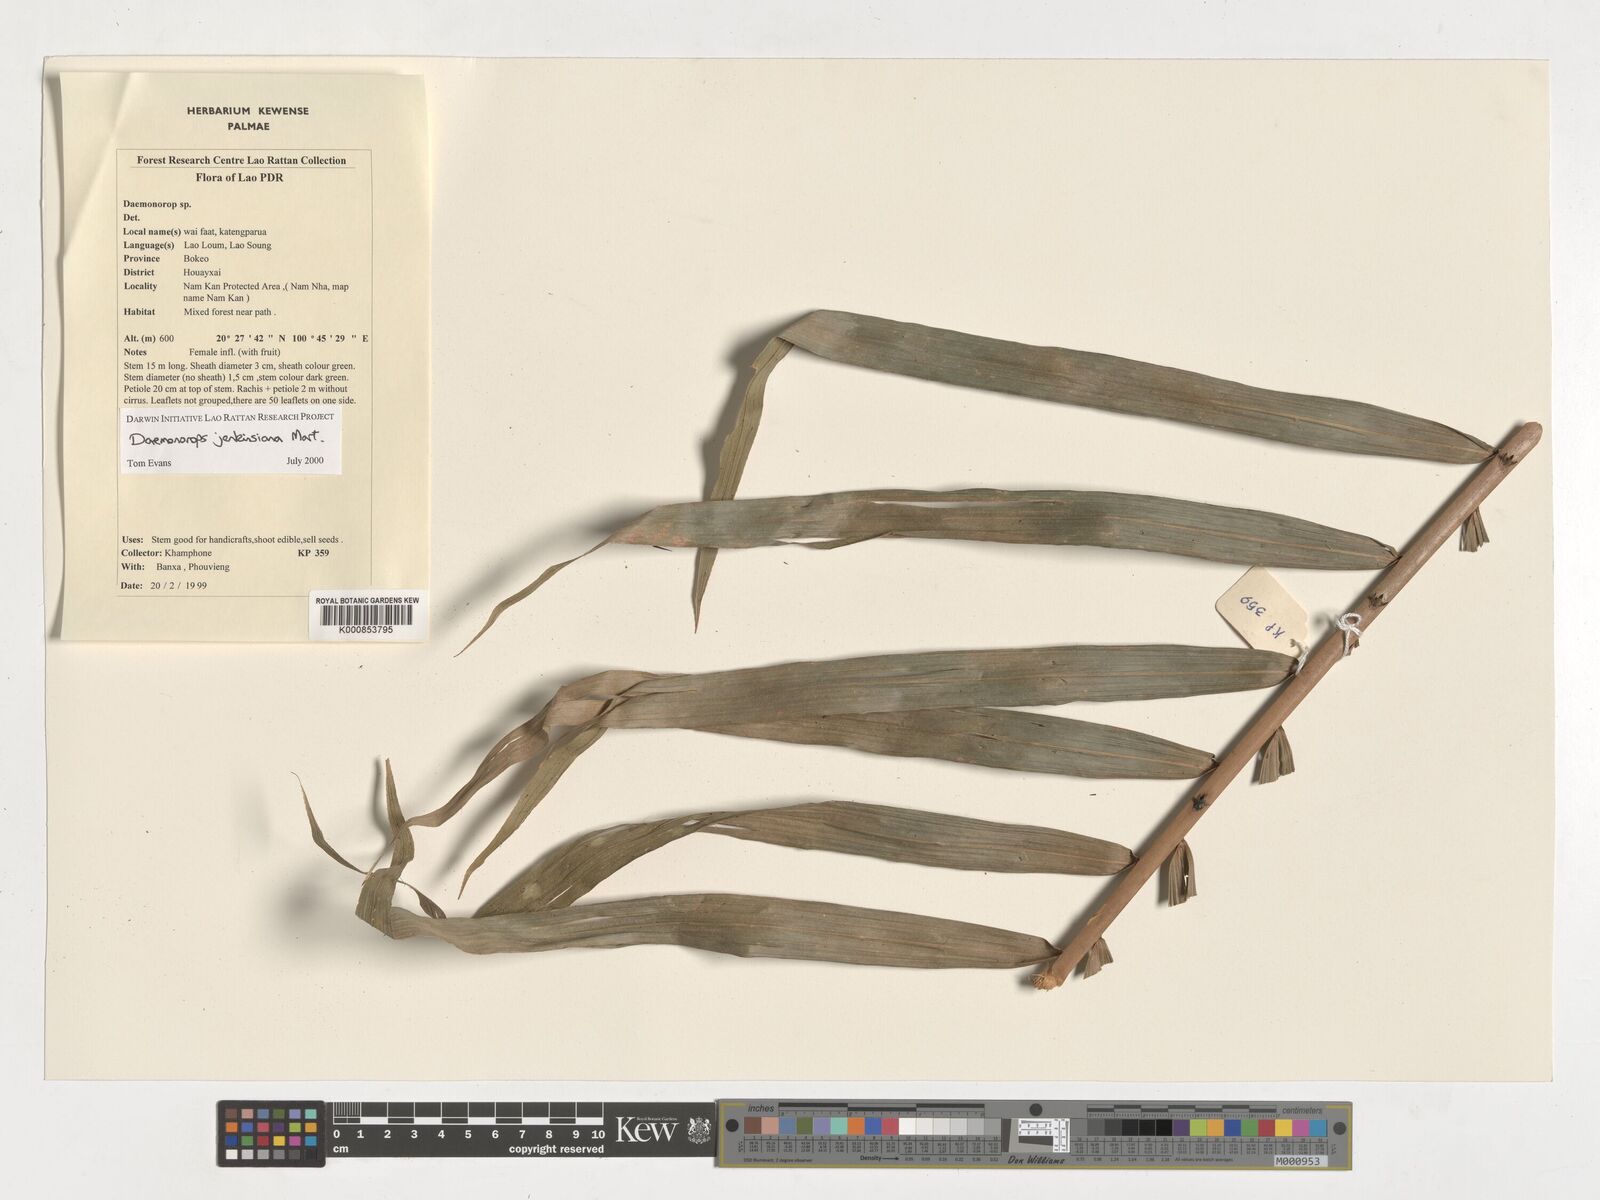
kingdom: Plantae
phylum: Tracheophyta
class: Liliopsida
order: Arecales
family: Arecaceae
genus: Calamus
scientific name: Calamus melanochaetes
